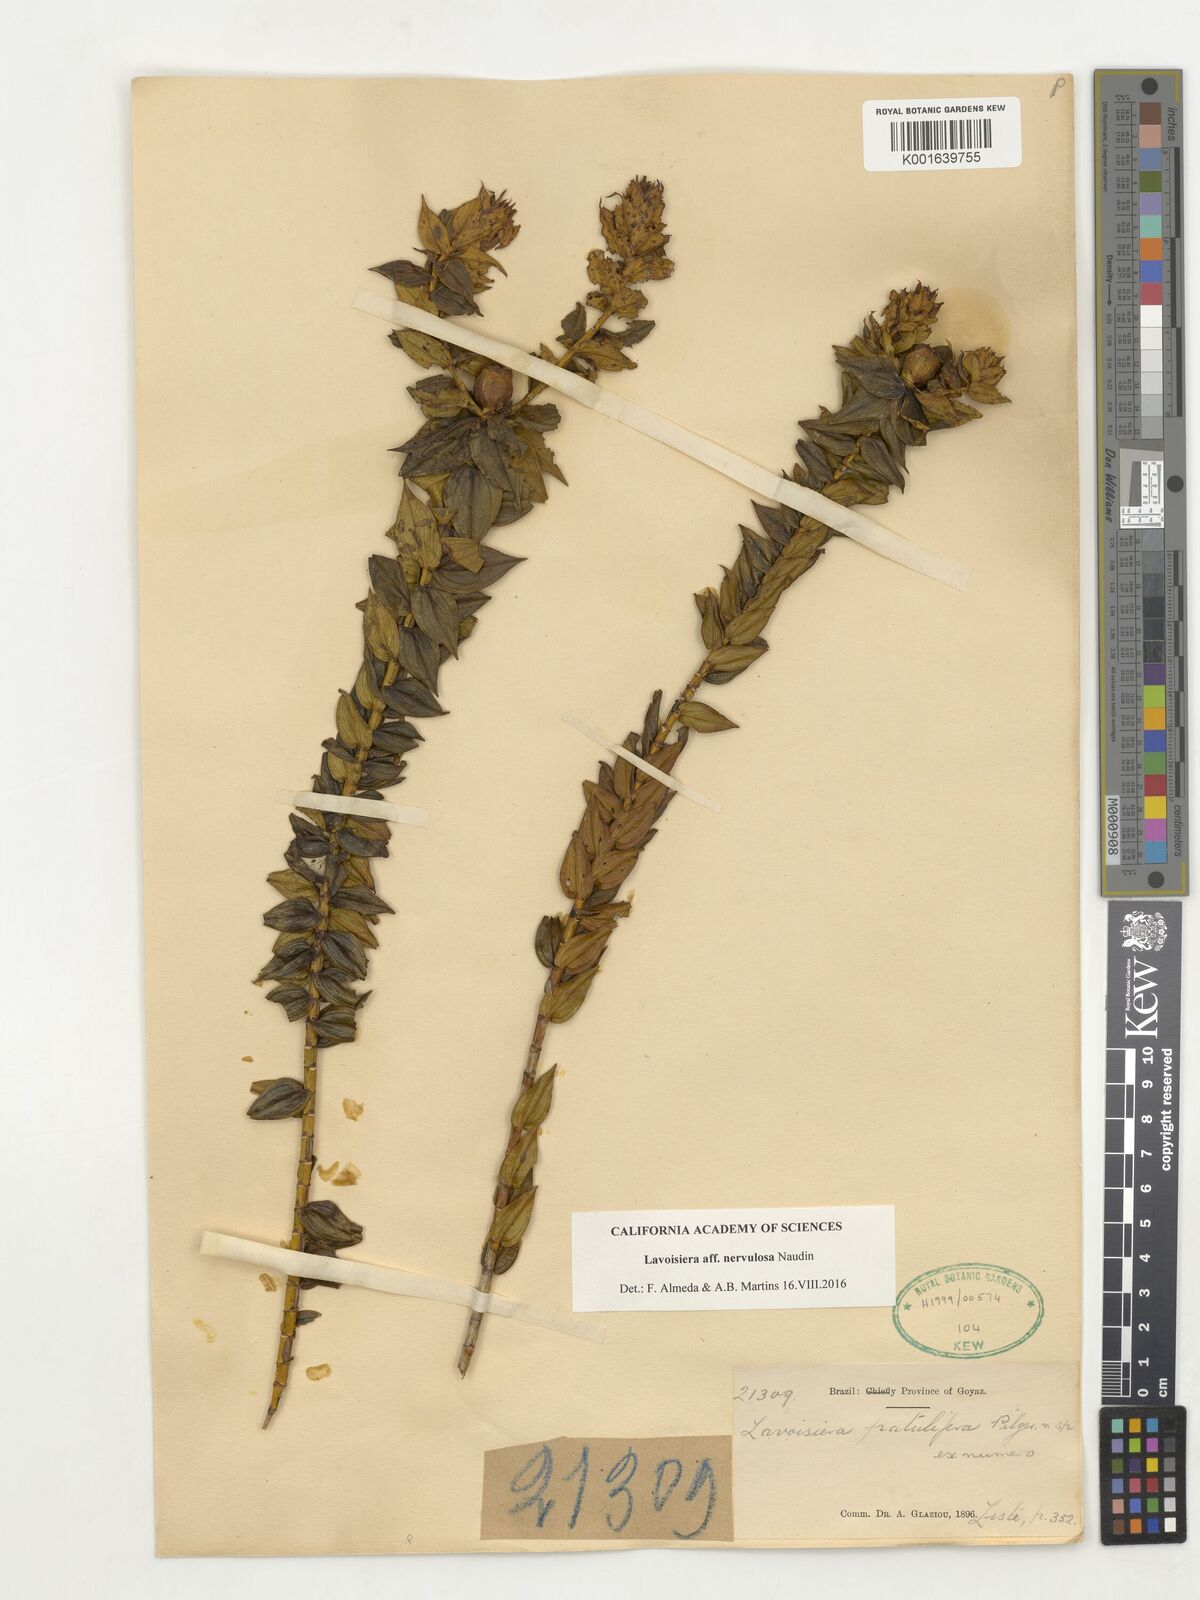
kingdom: Plantae
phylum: Tracheophyta
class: Magnoliopsida
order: Myrtales
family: Melastomataceae
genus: Microlicia
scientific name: Microlicia nervulosa
